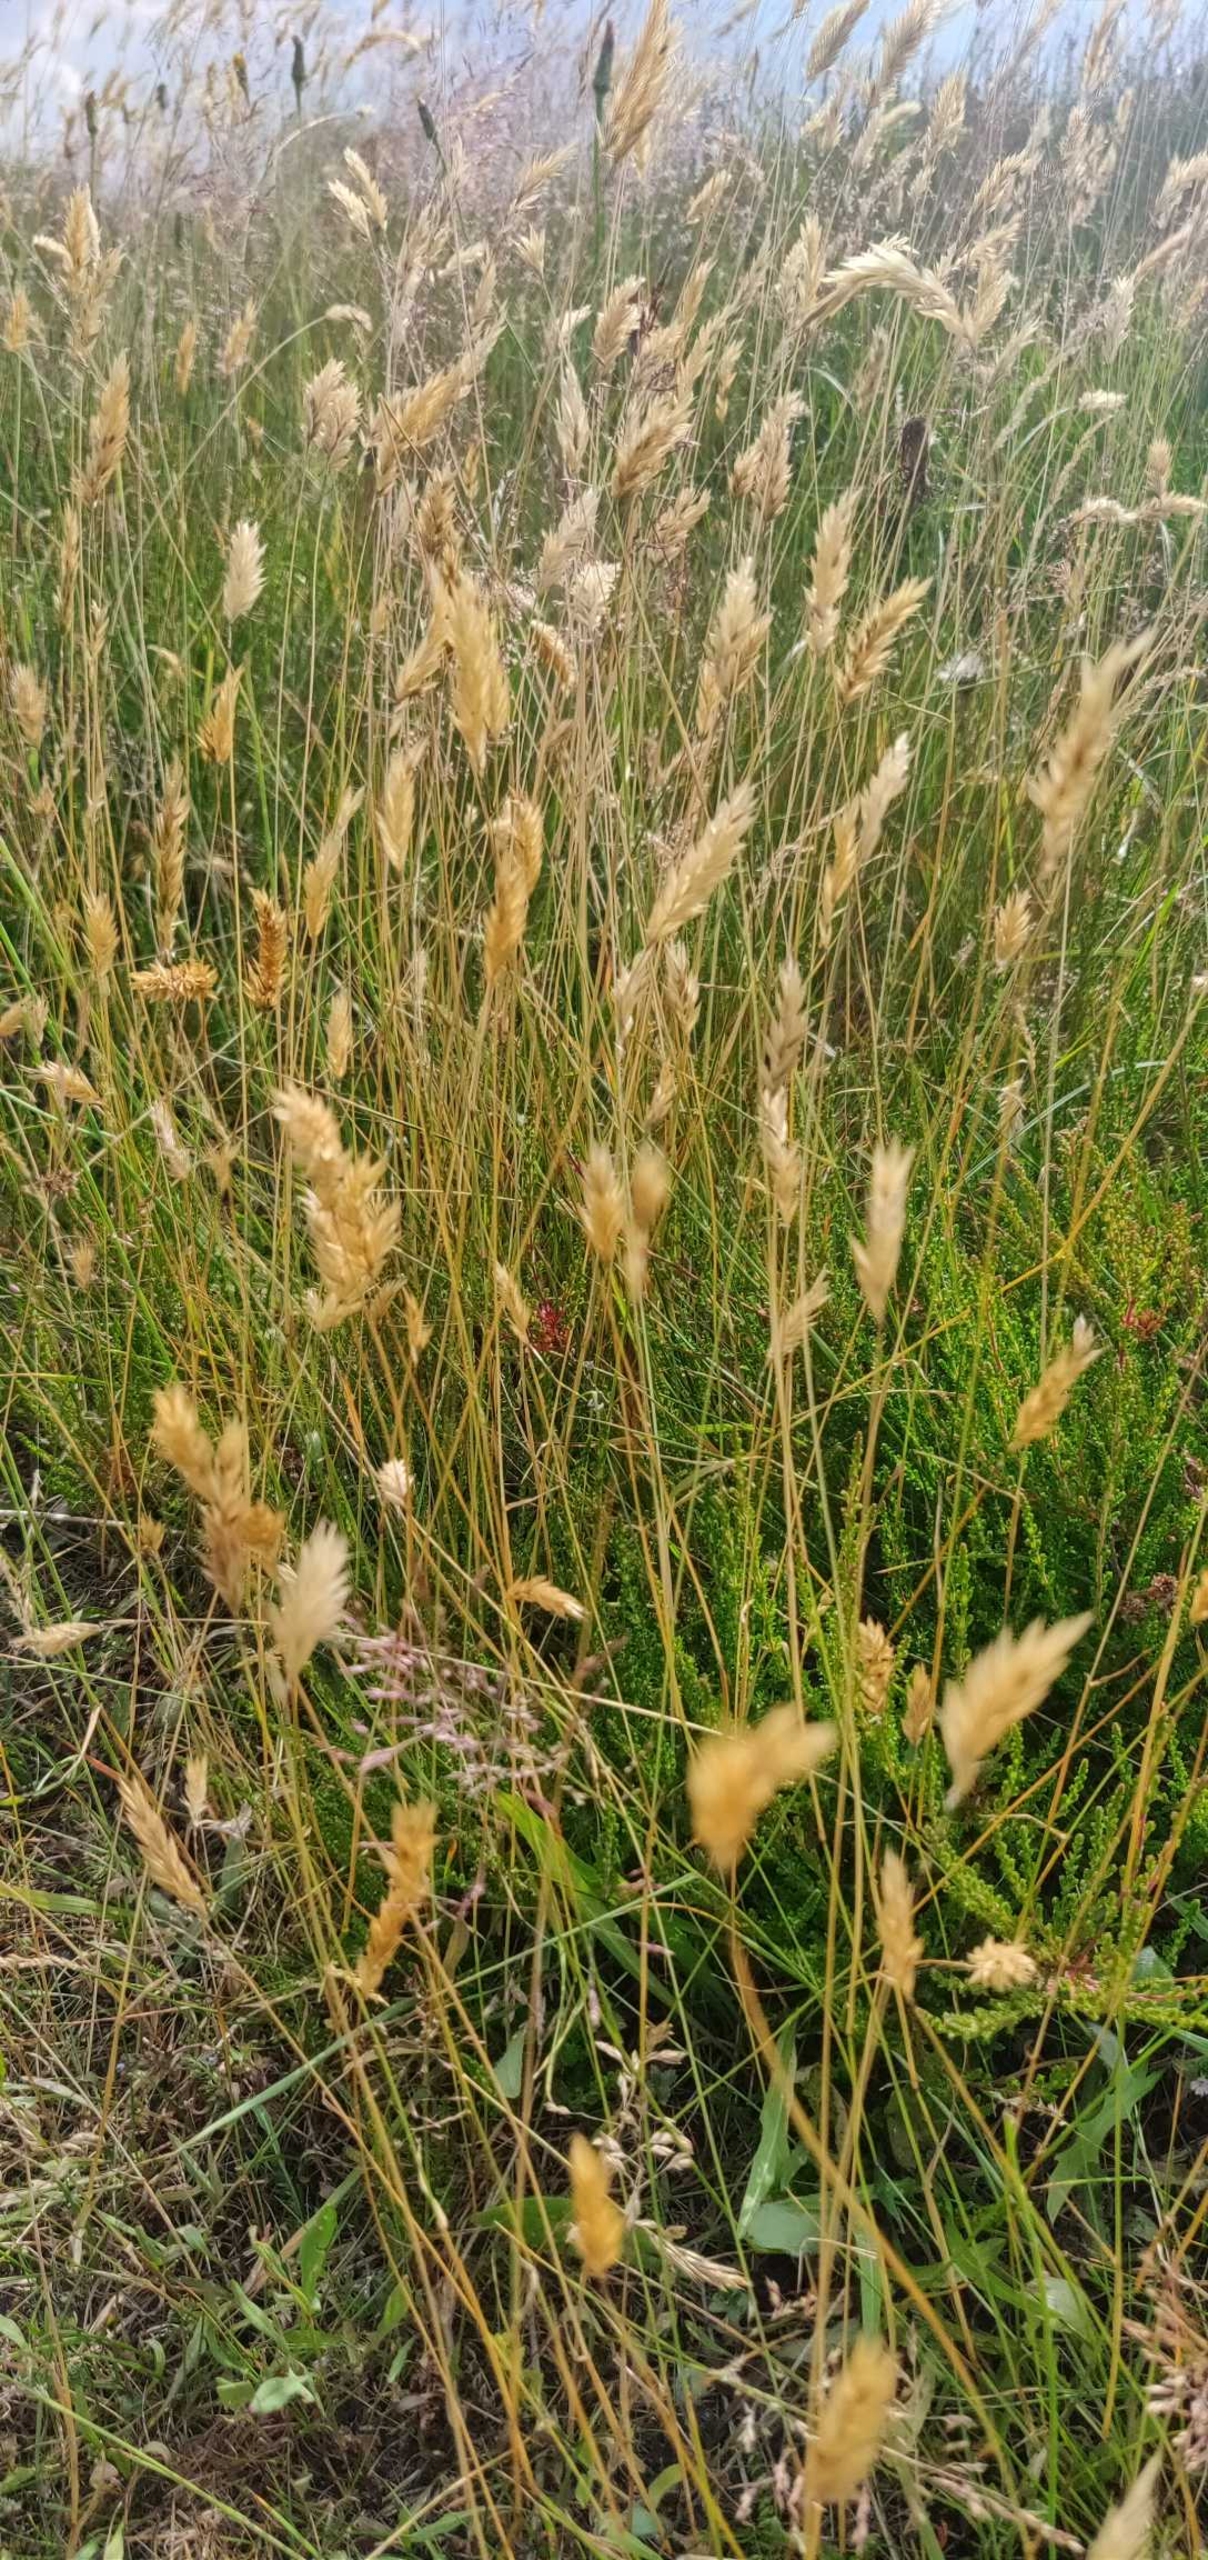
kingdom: Plantae
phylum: Tracheophyta
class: Liliopsida
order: Poales
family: Poaceae
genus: Anthoxanthum
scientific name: Anthoxanthum odoratum
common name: Vellugtende gulaks
